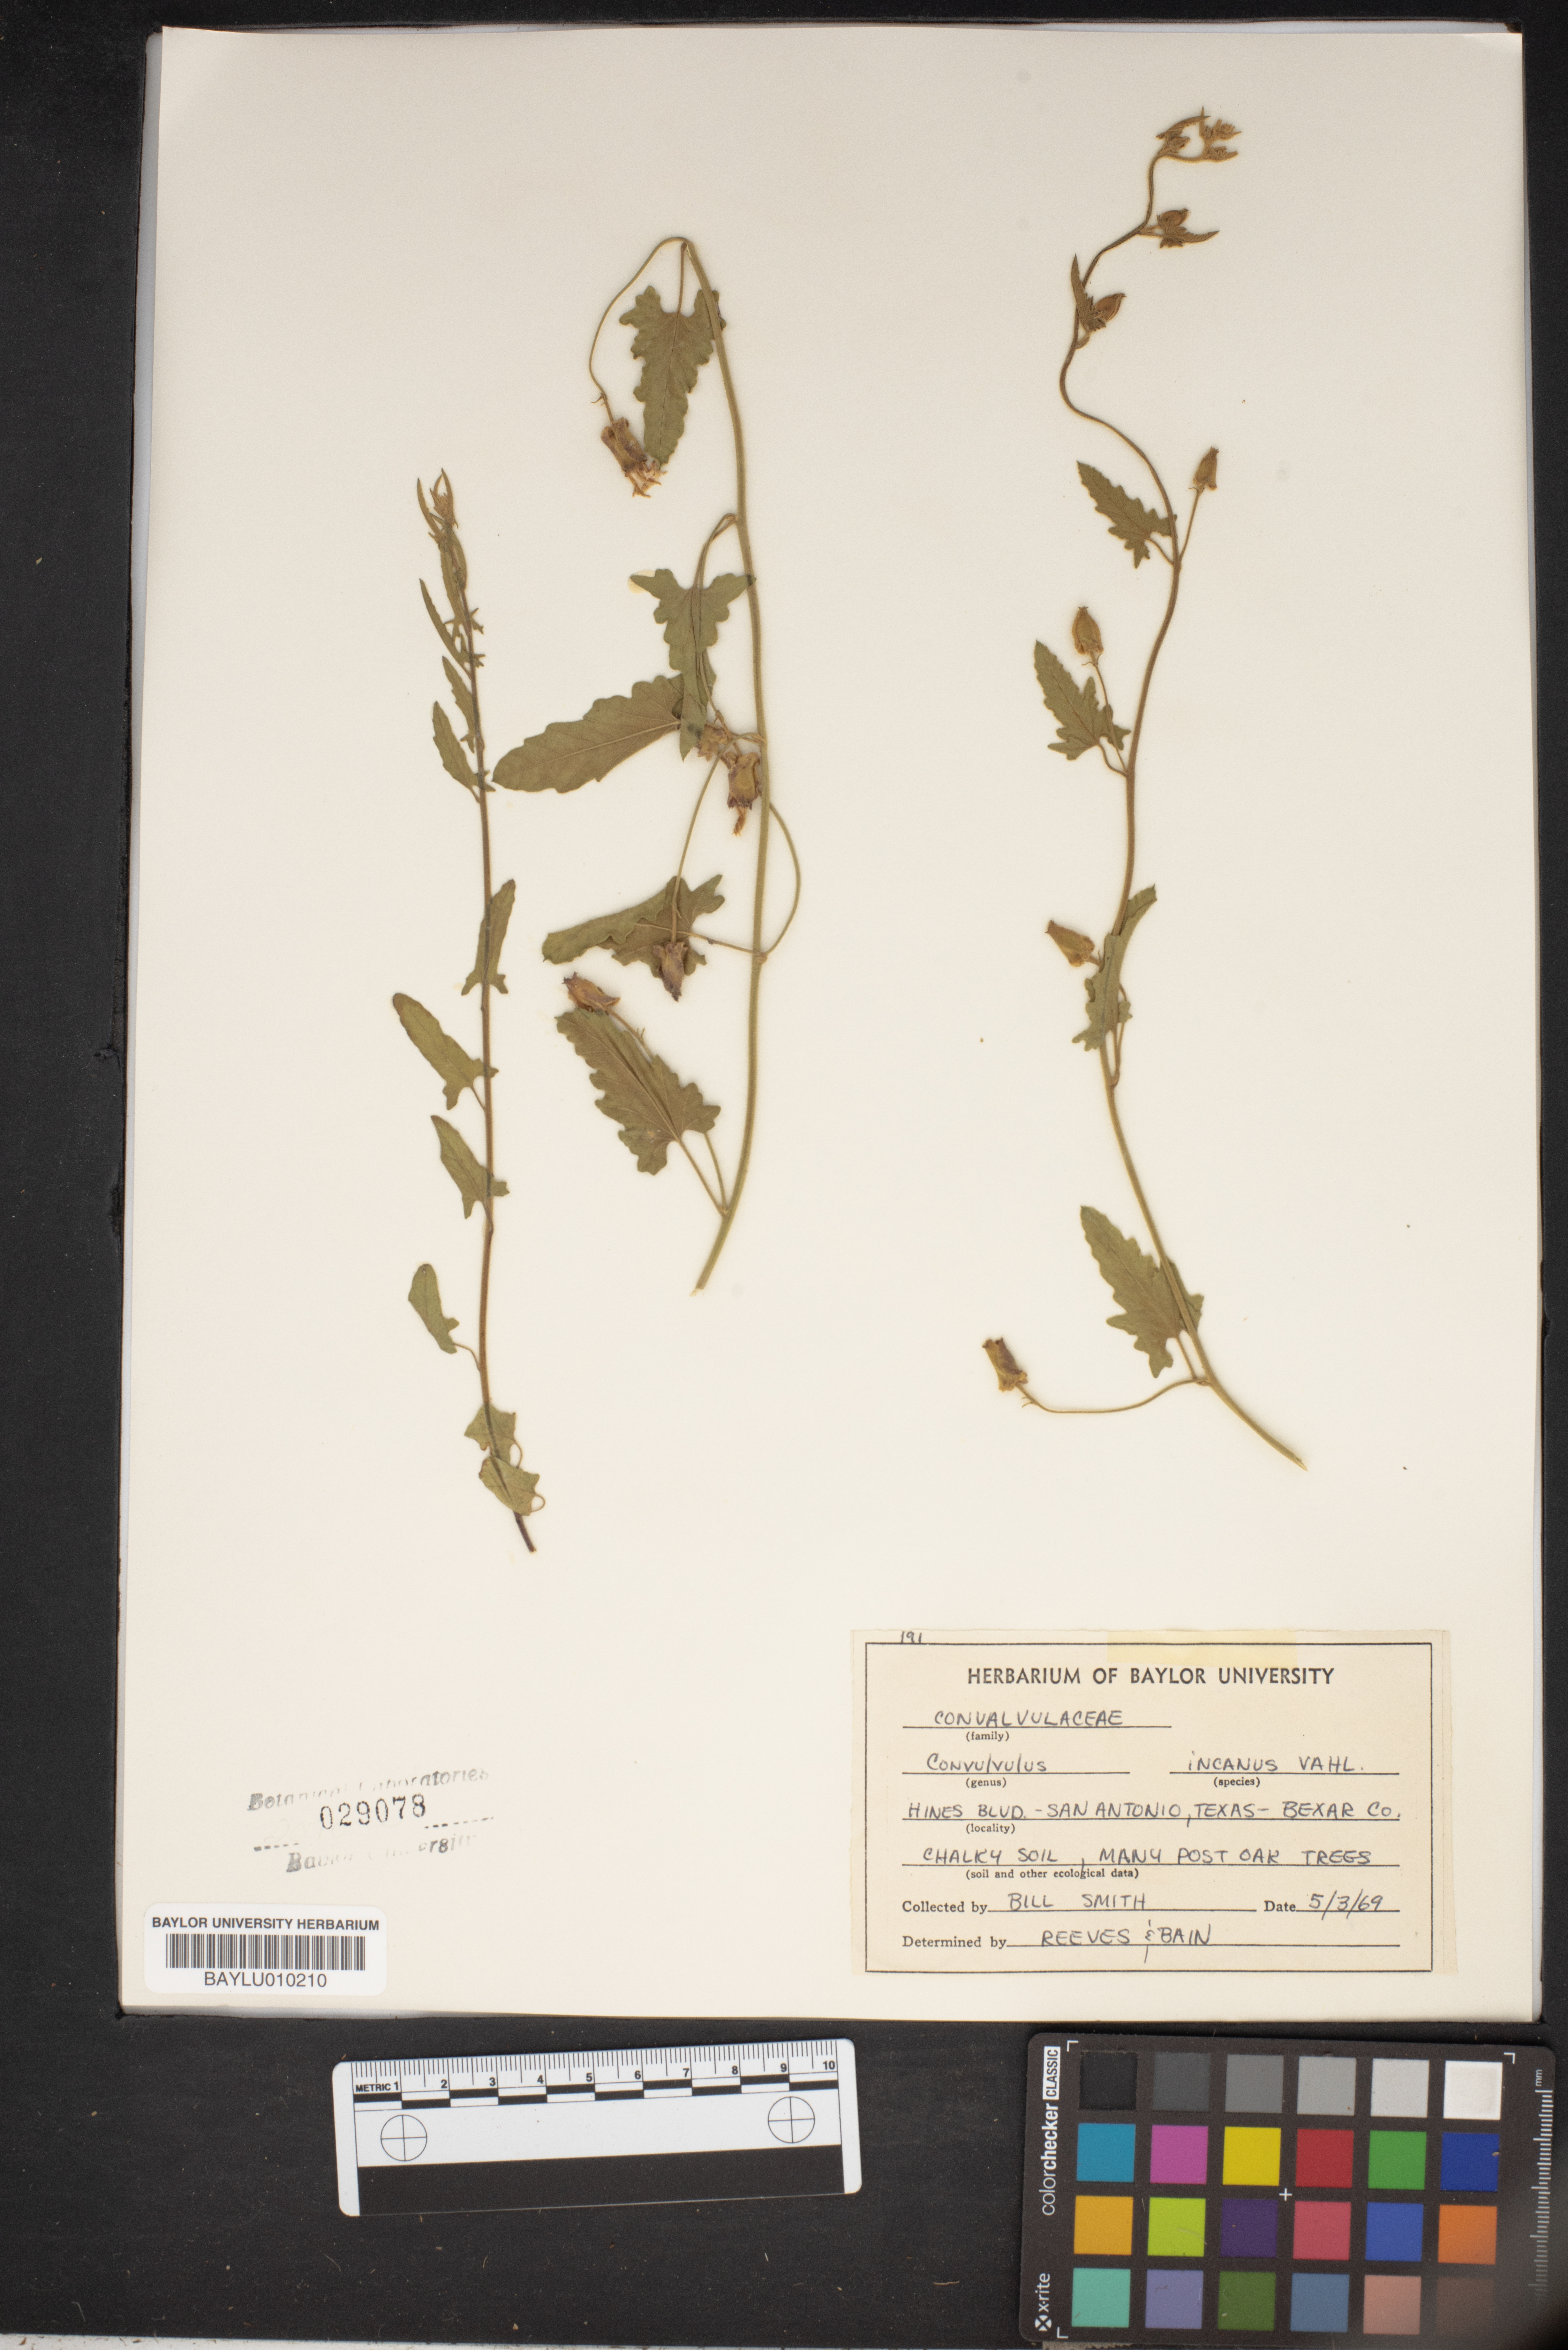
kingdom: Plantae
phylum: Tracheophyta
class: Magnoliopsida
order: Solanales
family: Convolvulaceae
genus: Convolvulus
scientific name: Convolvulus hermanniae
